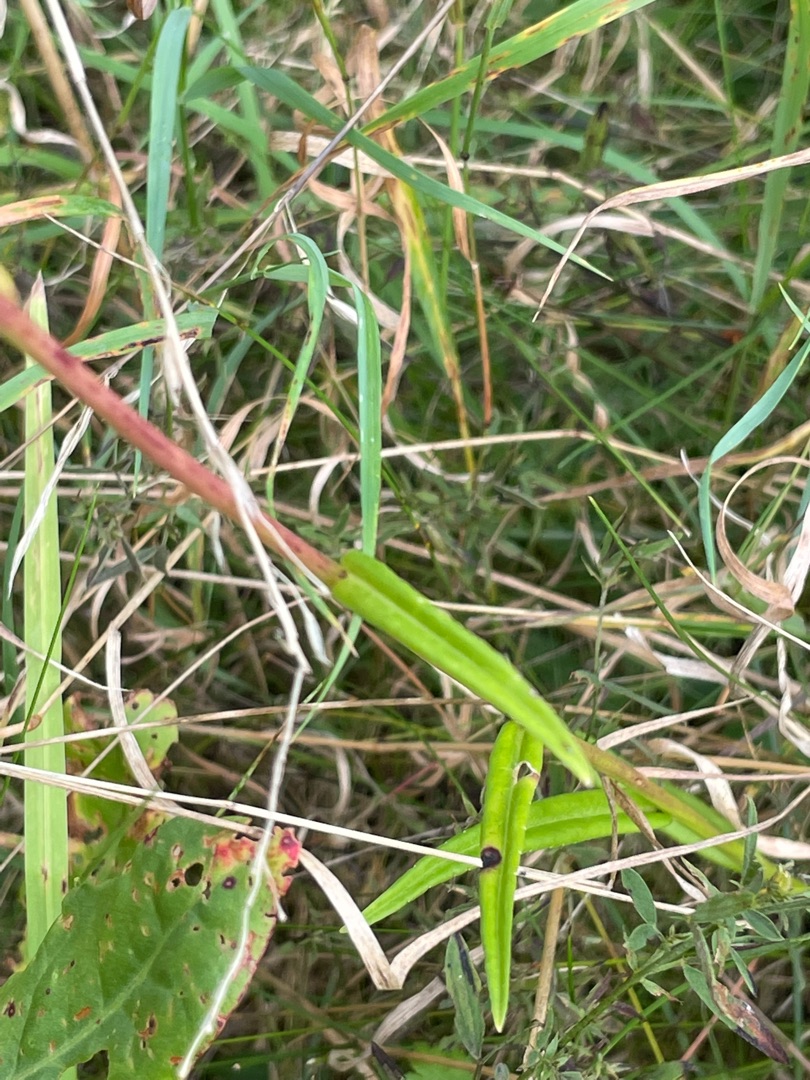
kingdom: Plantae
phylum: Tracheophyta
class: Magnoliopsida
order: Asterales
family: Campanulaceae
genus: Campanula
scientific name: Campanula persicifolia
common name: Smalbladet klokke
